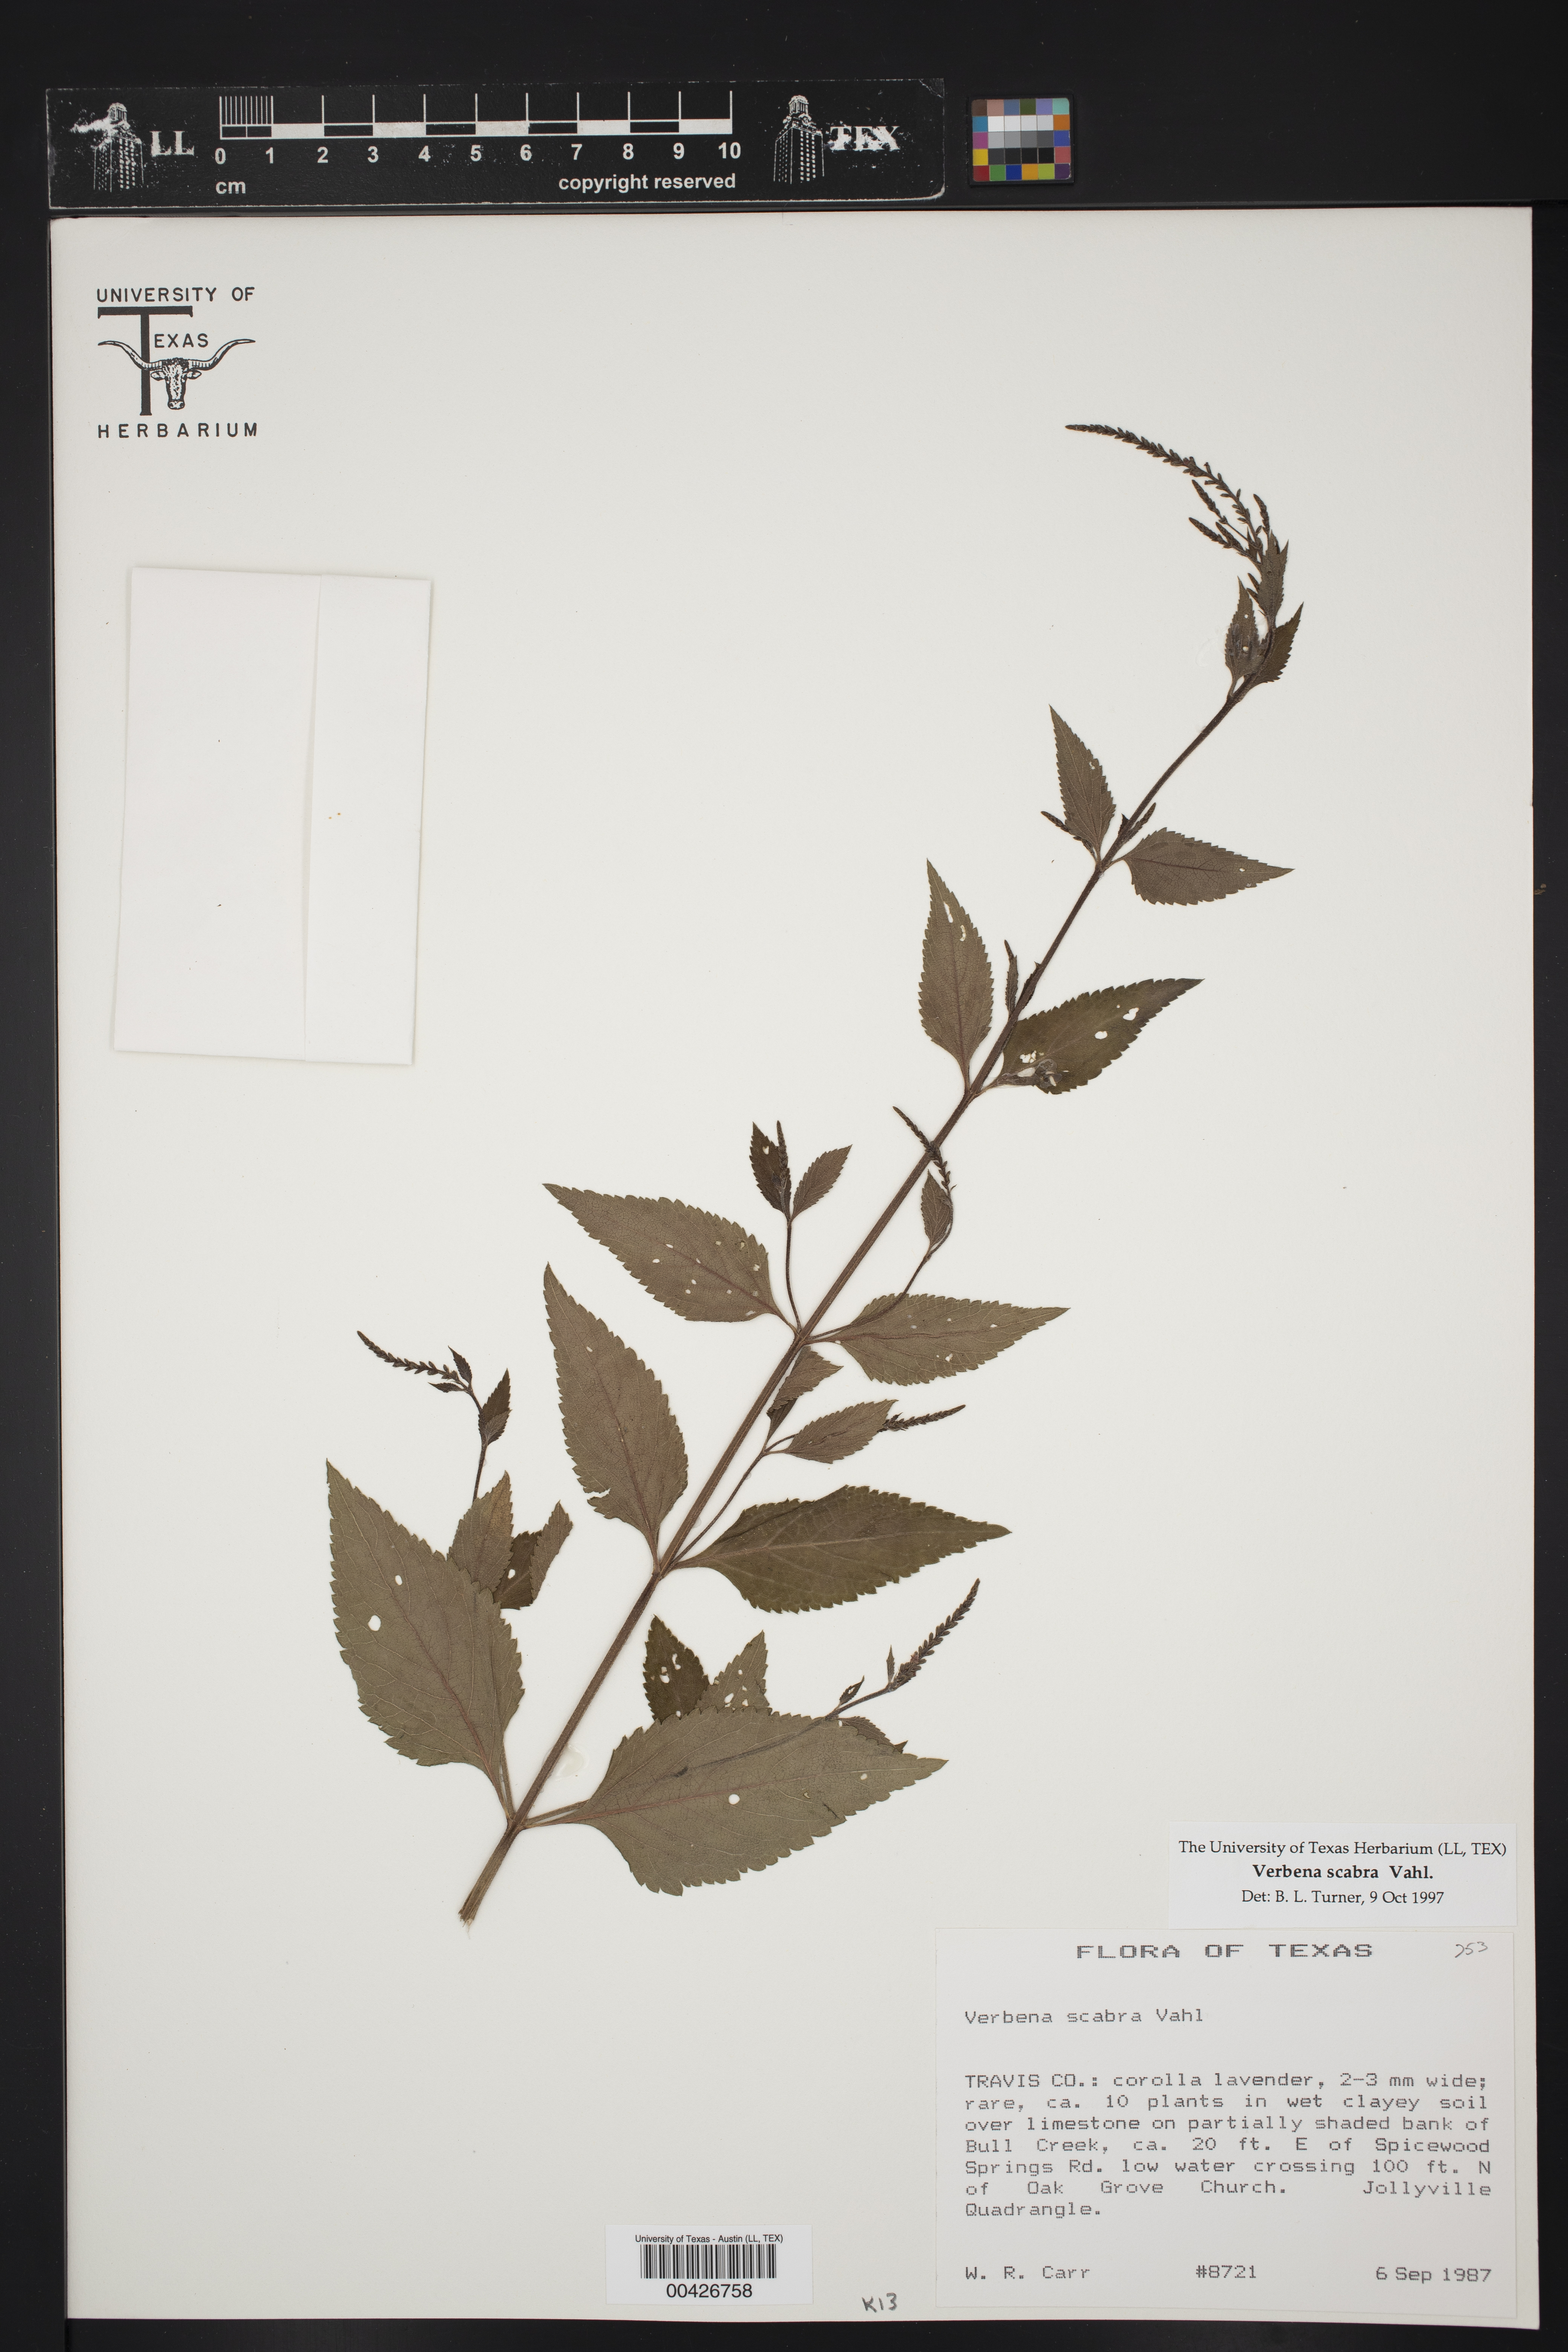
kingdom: Plantae
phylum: Tracheophyta
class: Magnoliopsida
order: Lamiales
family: Verbenaceae
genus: Verbena
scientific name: Verbena scabra
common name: Sandpaper vervain
